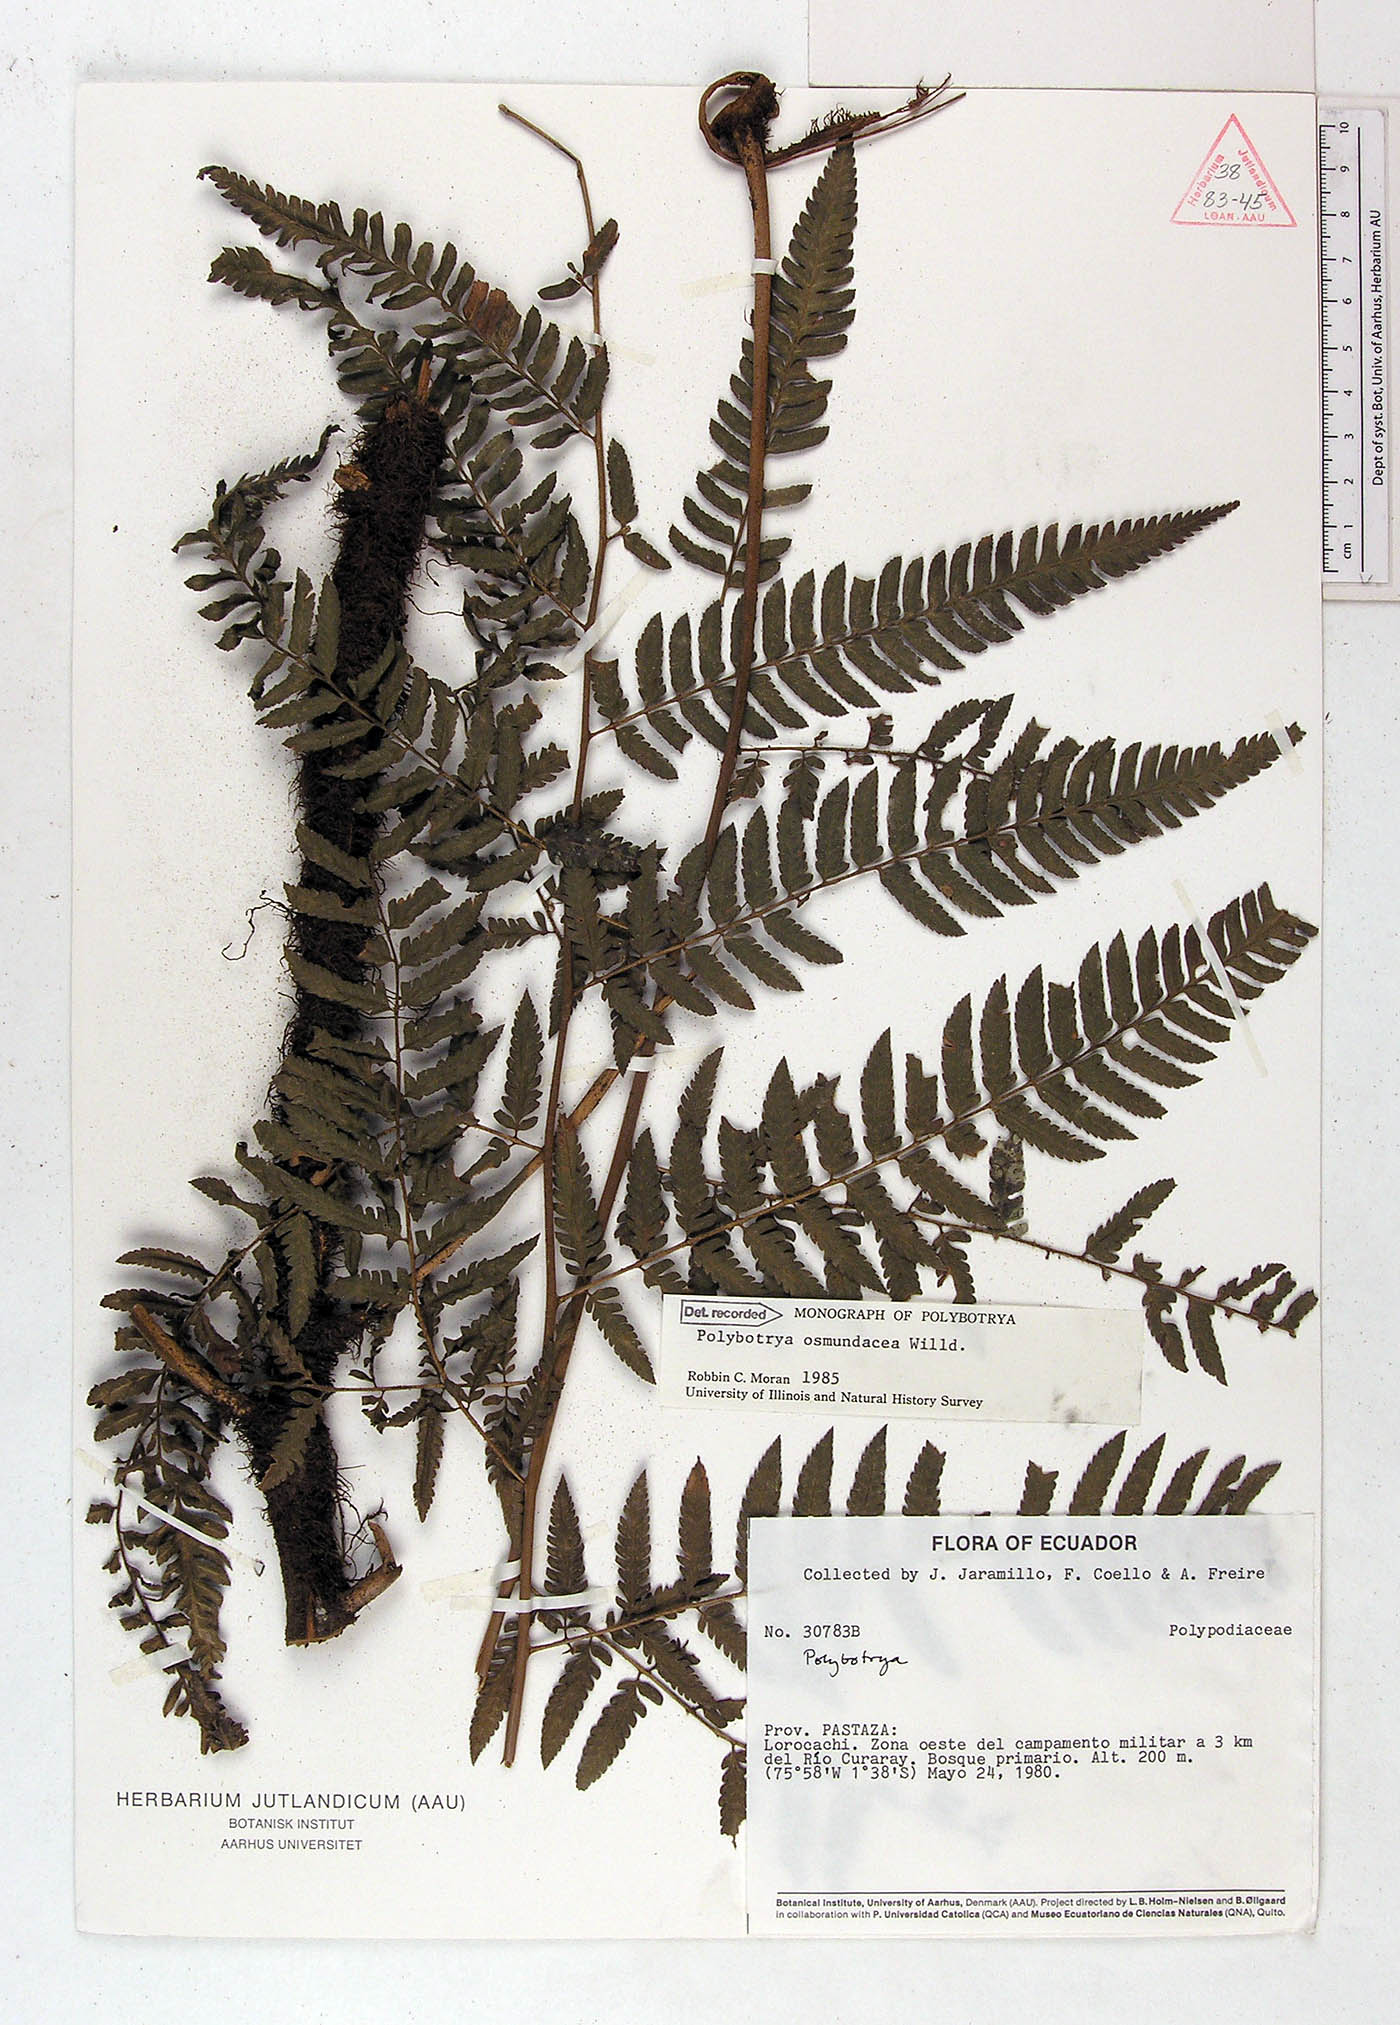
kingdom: Plantae
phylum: Tracheophyta
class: Polypodiopsida
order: Polypodiales
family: Dryopteridaceae
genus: Polybotrya
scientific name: Polybotrya osmundacea
